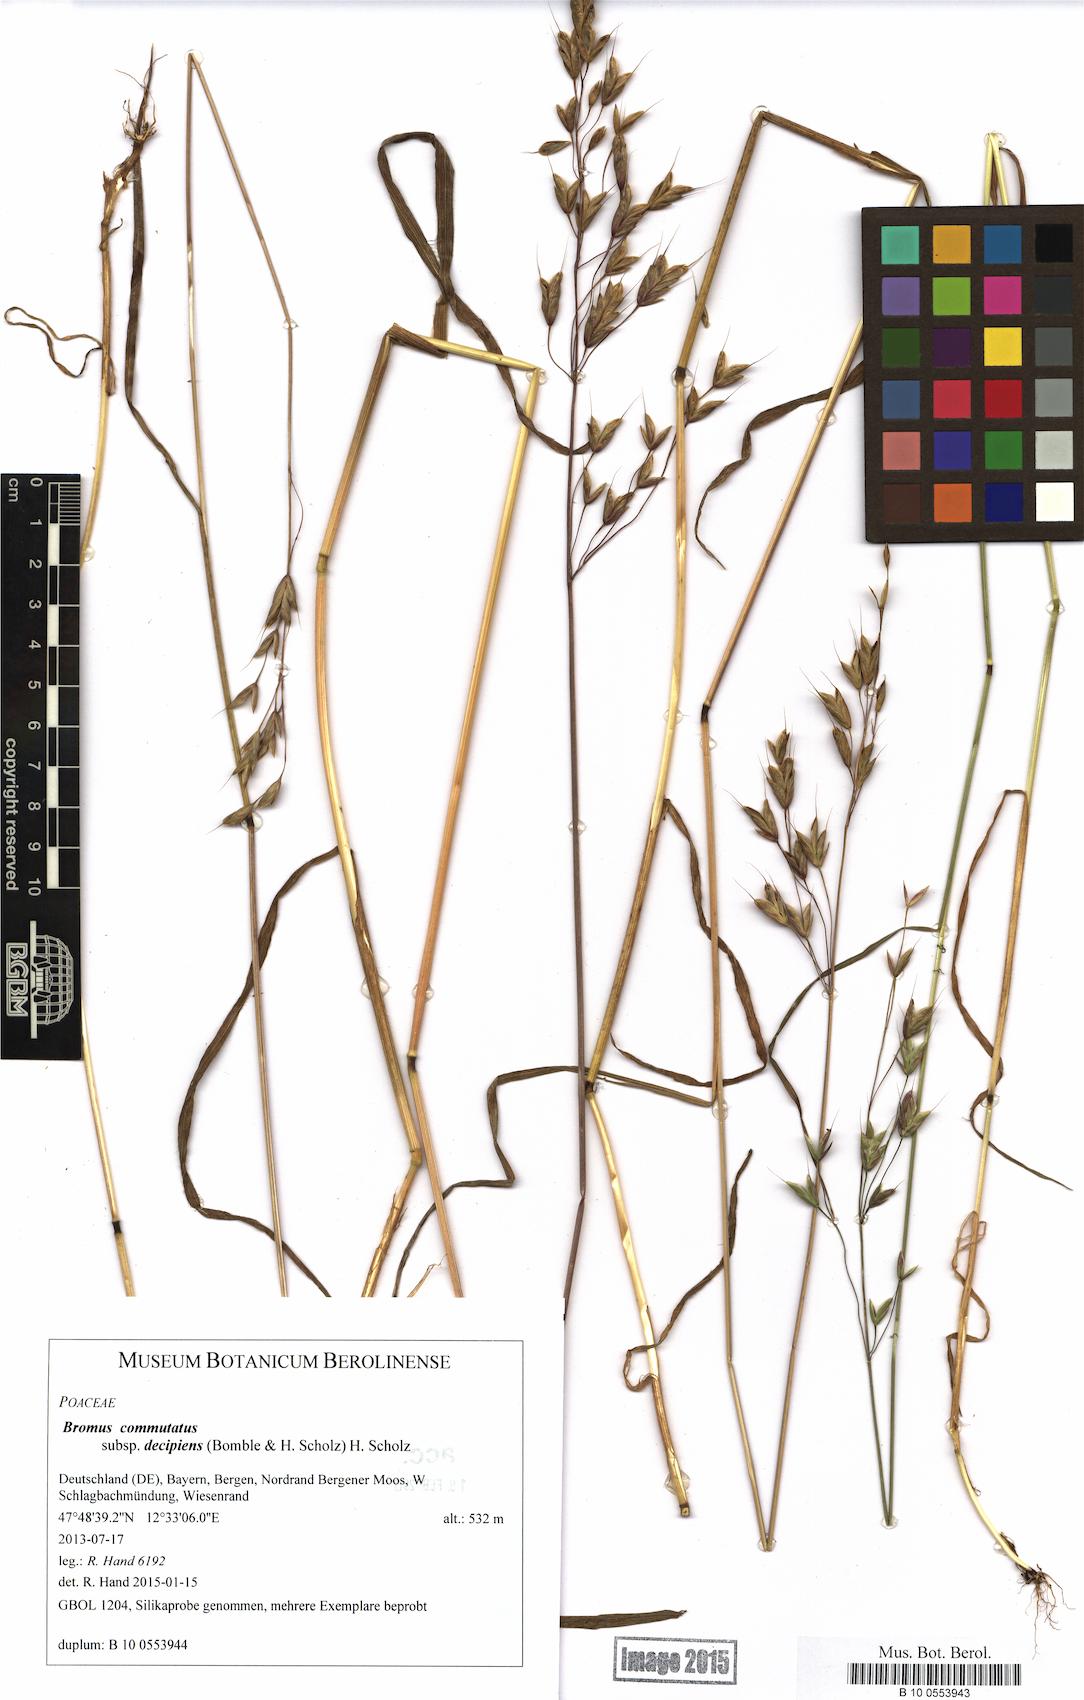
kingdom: Plantae
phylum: Tracheophyta
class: Liliopsida
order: Poales
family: Poaceae
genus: Bromus
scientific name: Bromus commutatus
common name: Meadow brome
